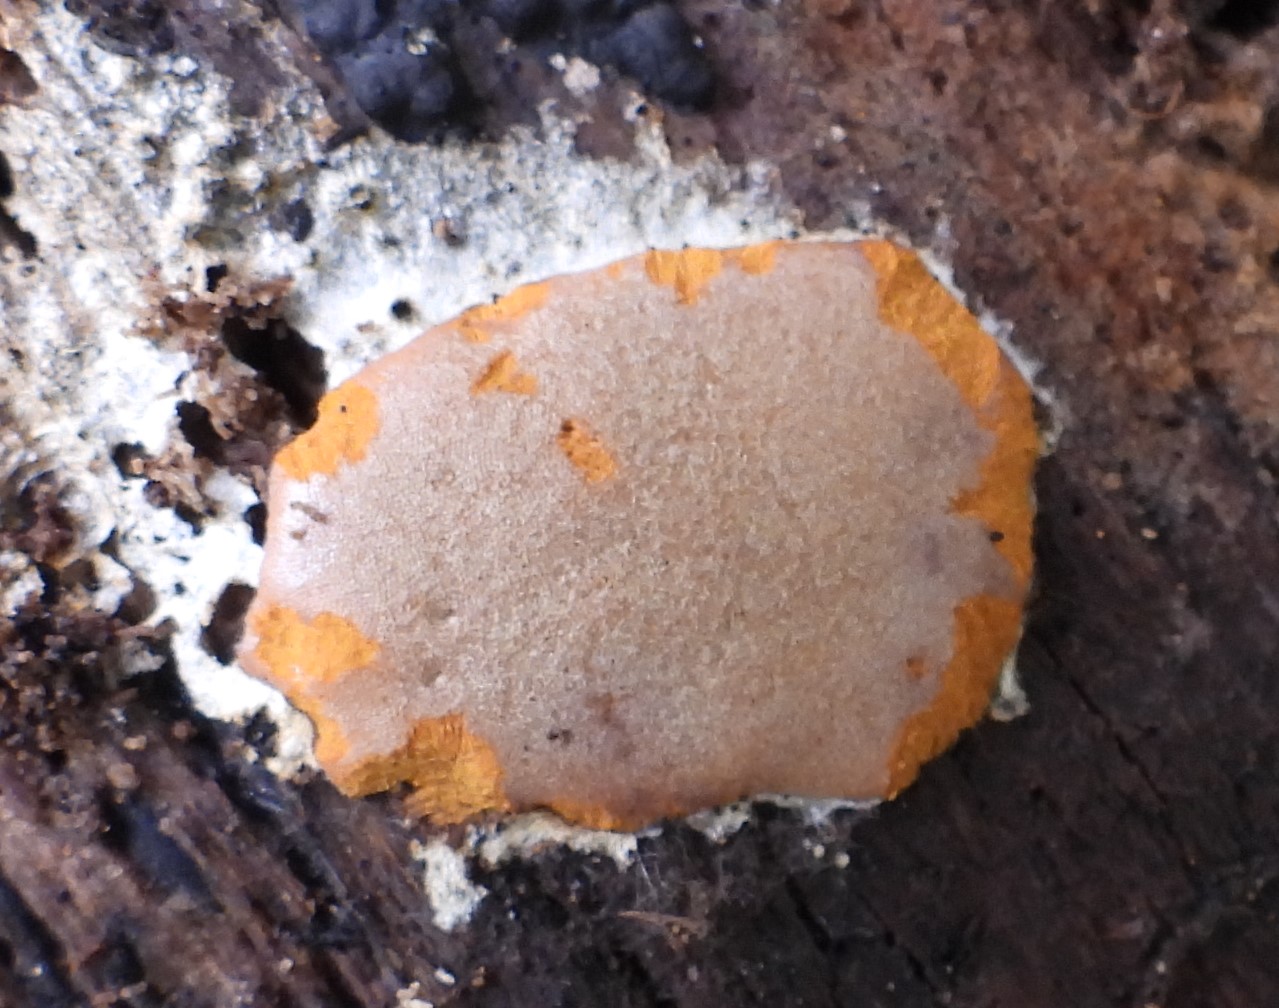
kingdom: Protozoa
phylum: Mycetozoa
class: Myxomycetes
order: Trichiales
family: Dictydiaethaliaceae
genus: Dictydiaethalium
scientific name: Dictydiaethalium plumbeum
